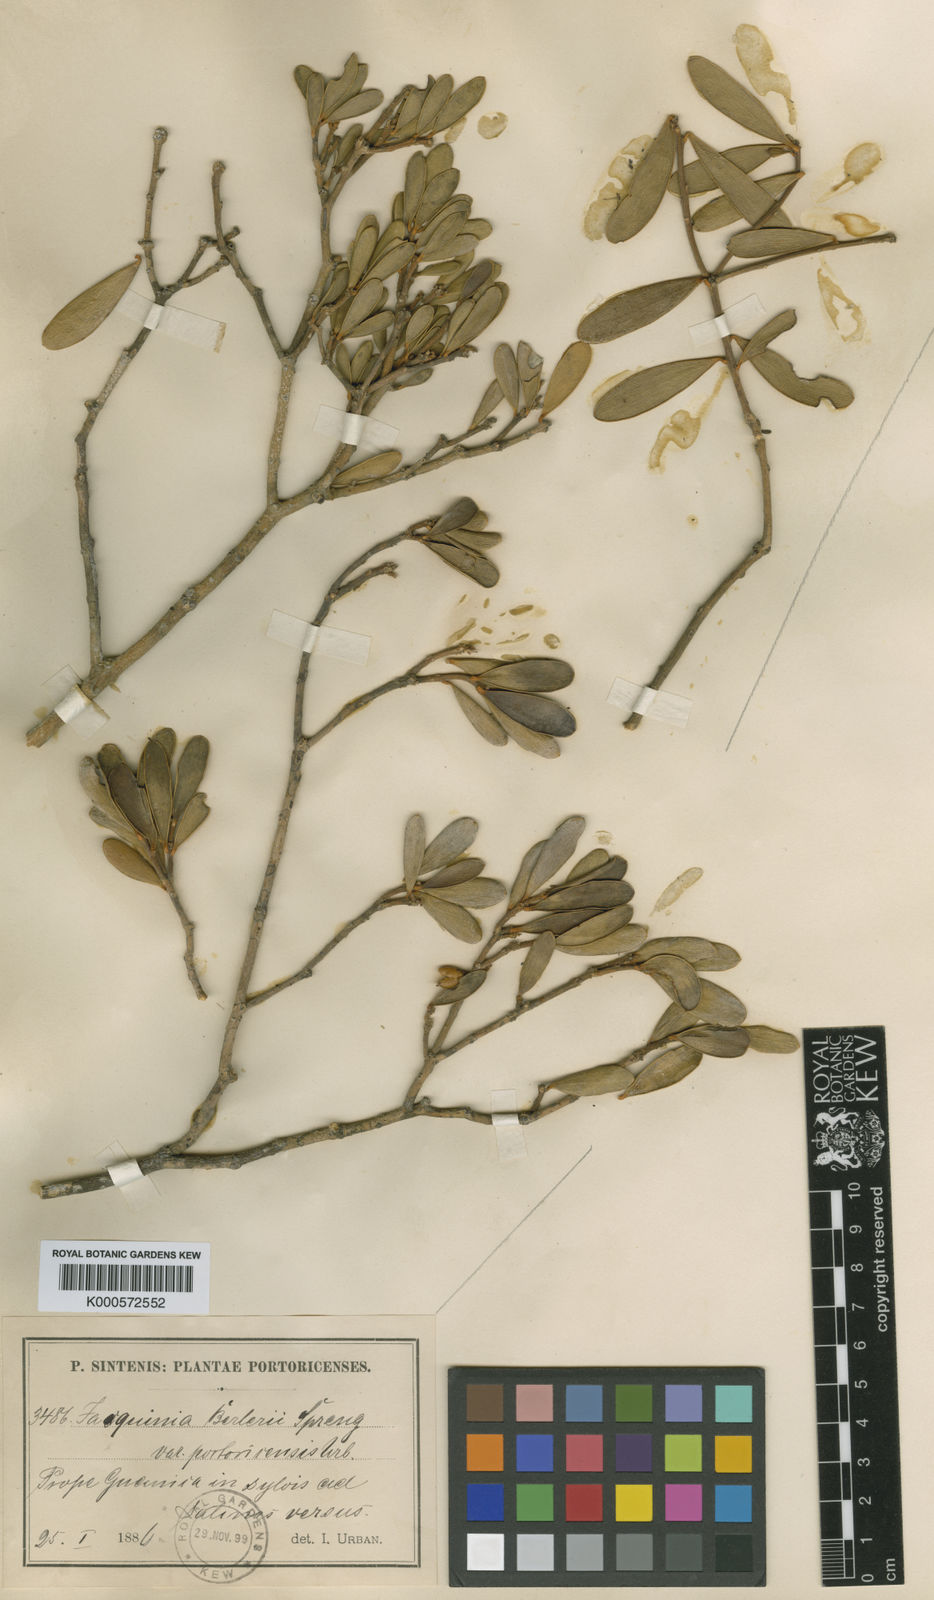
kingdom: Plantae
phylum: Tracheophyta
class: Magnoliopsida
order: Ericales
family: Primulaceae
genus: Jacquinia
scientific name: Jacquinia berteroi
